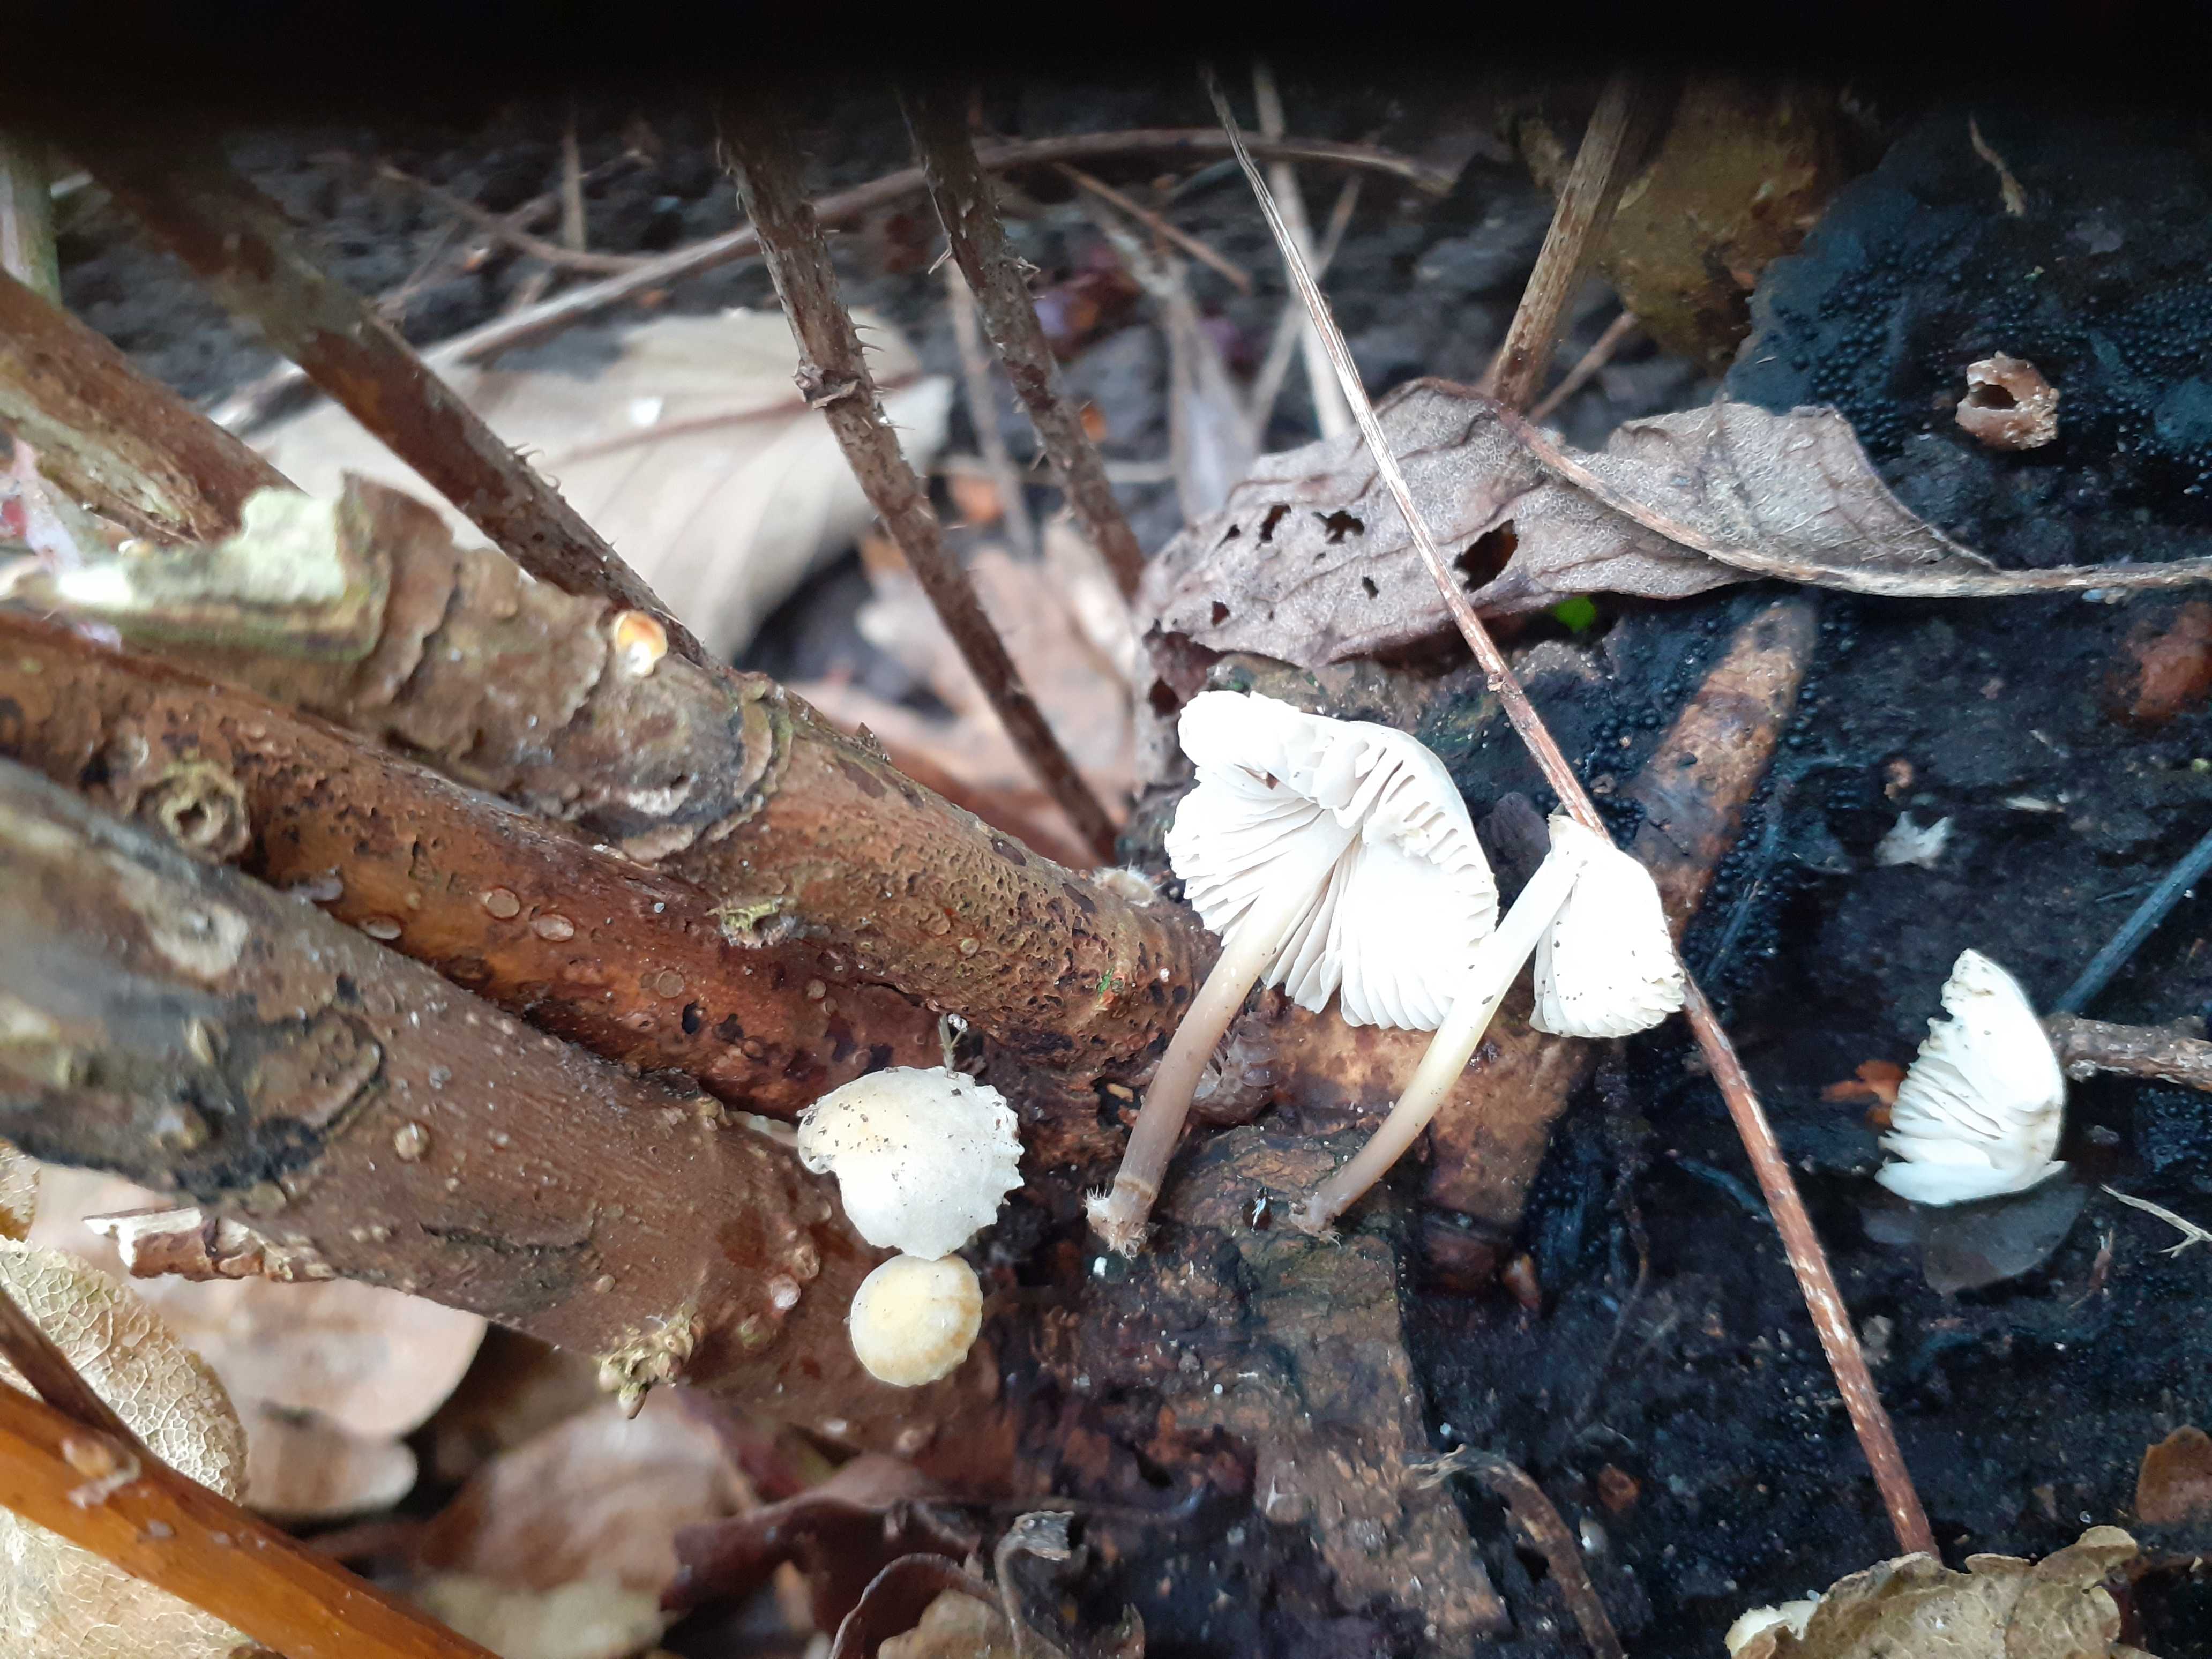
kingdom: Fungi
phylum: Basidiomycota
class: Agaricomycetes
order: Agaricales
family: Mycenaceae
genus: Mycena
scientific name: Mycena arcangeliana
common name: oliven-huesvamp
